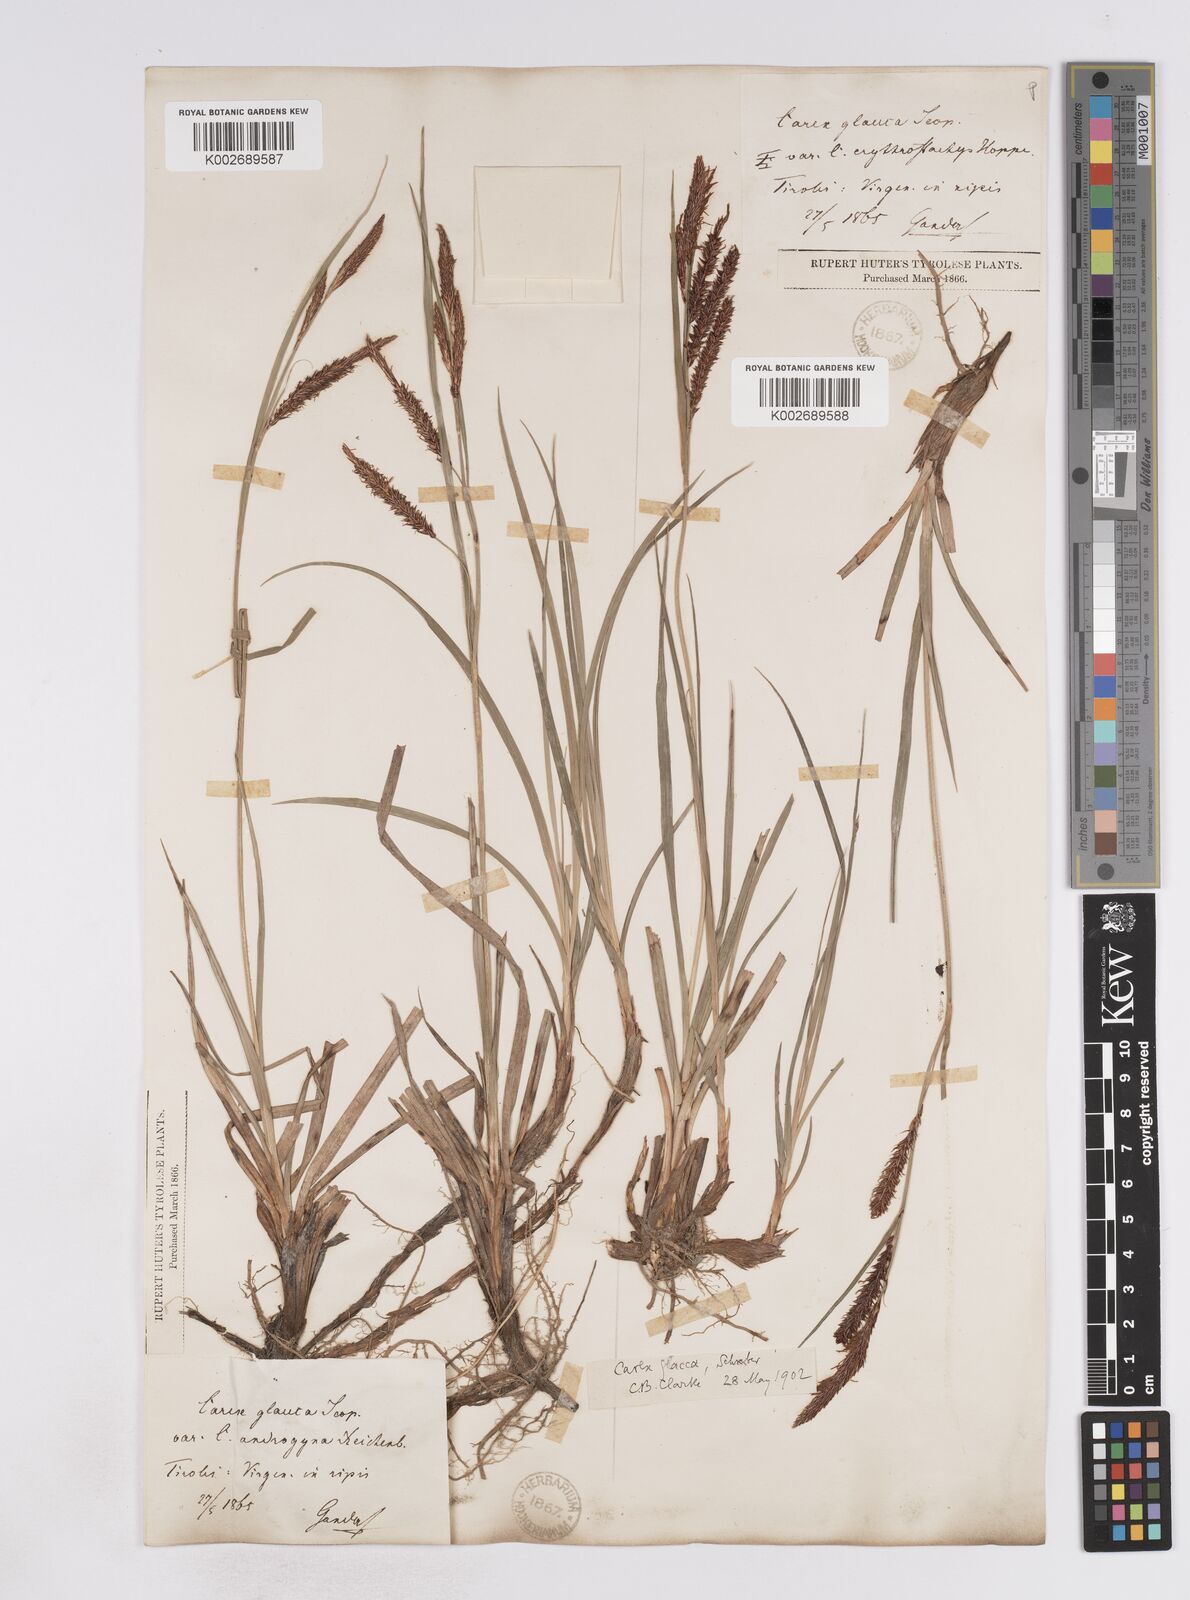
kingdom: Plantae
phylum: Tracheophyta
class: Liliopsida
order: Poales
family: Cyperaceae
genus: Carex
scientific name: Carex flacca
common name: Glaucous sedge
